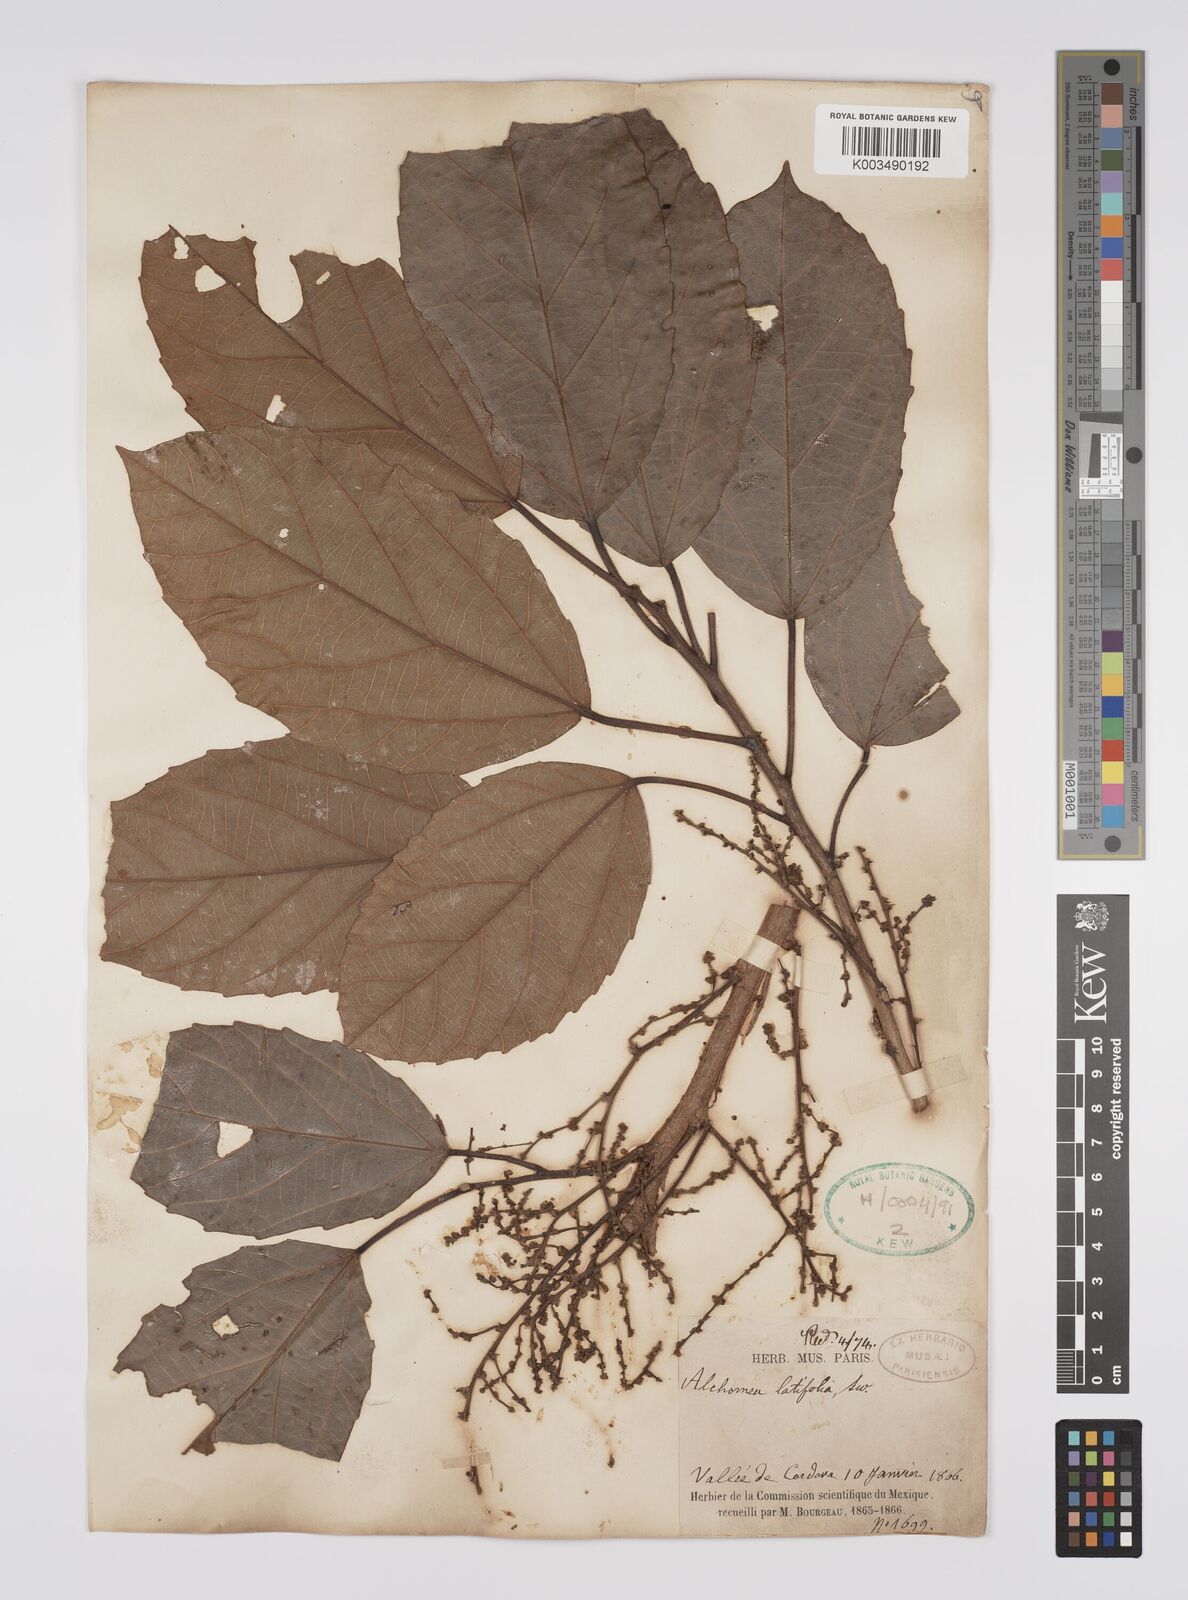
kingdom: Plantae
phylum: Tracheophyta
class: Magnoliopsida
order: Malpighiales
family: Euphorbiaceae
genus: Alchornea
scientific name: Alchornea latifolia
